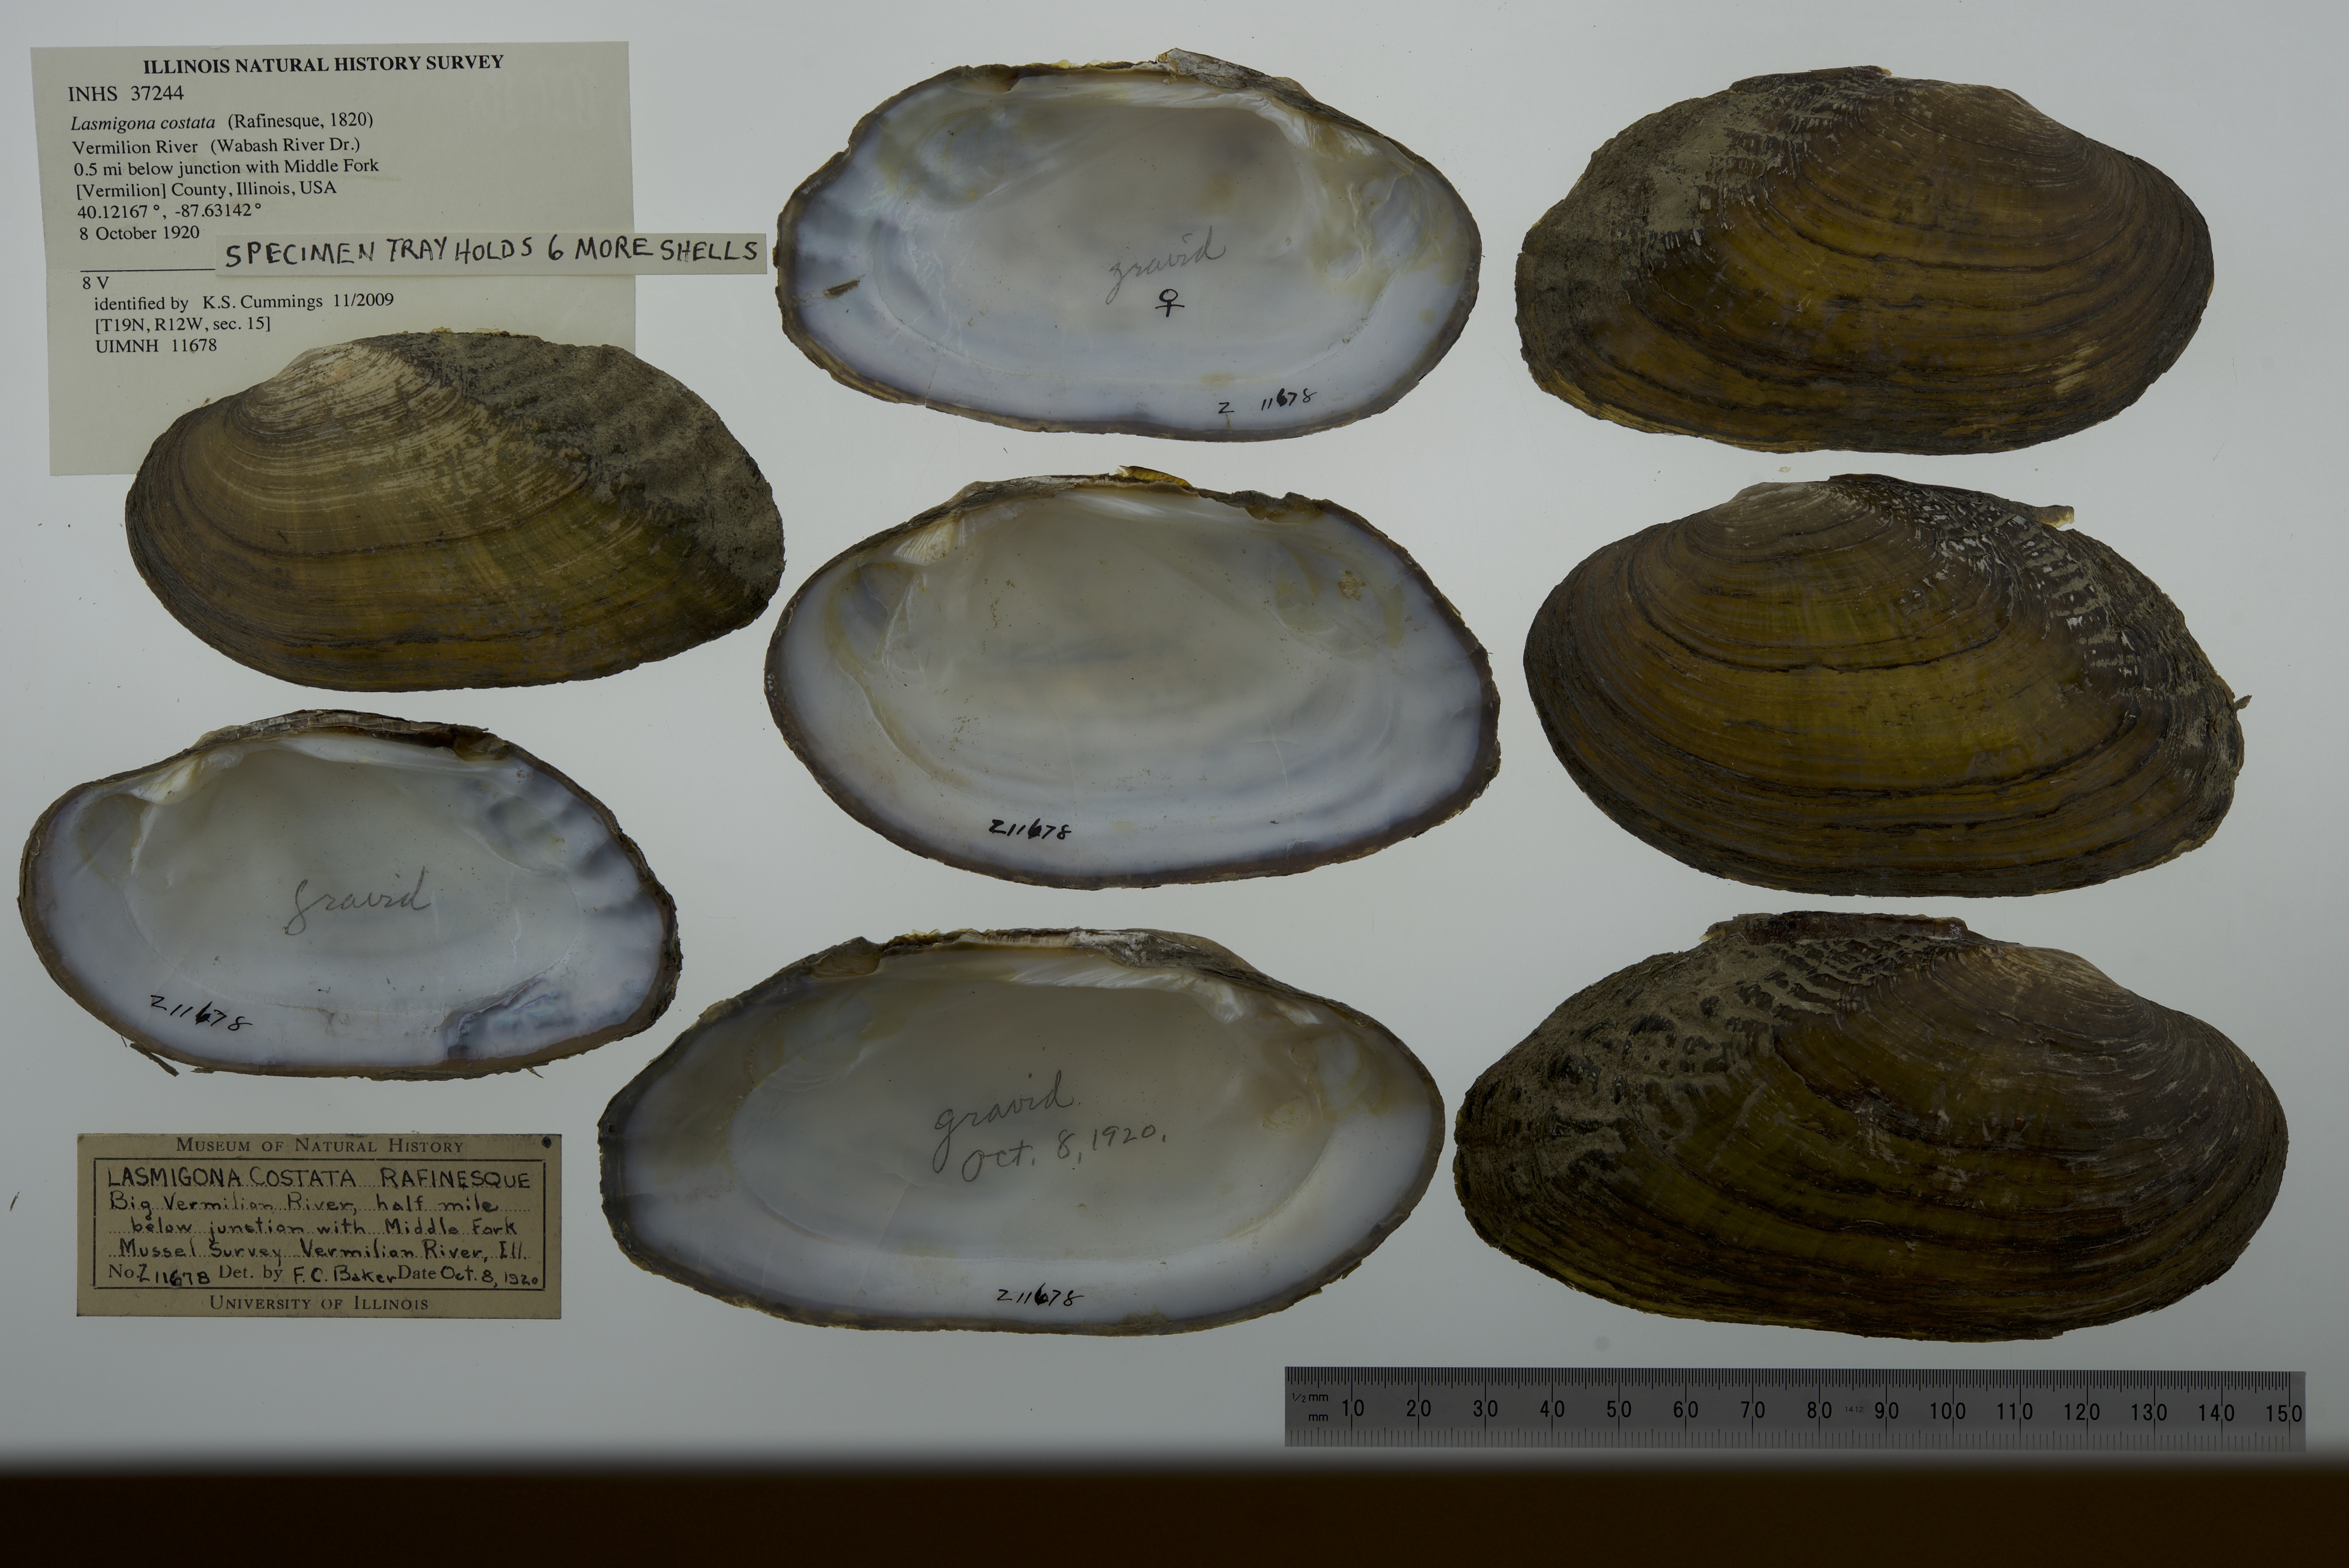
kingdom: Animalia
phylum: Mollusca
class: Bivalvia
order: Unionida
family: Unionidae
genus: Lasmigona
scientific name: Lasmigona costata
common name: Flutedshell
